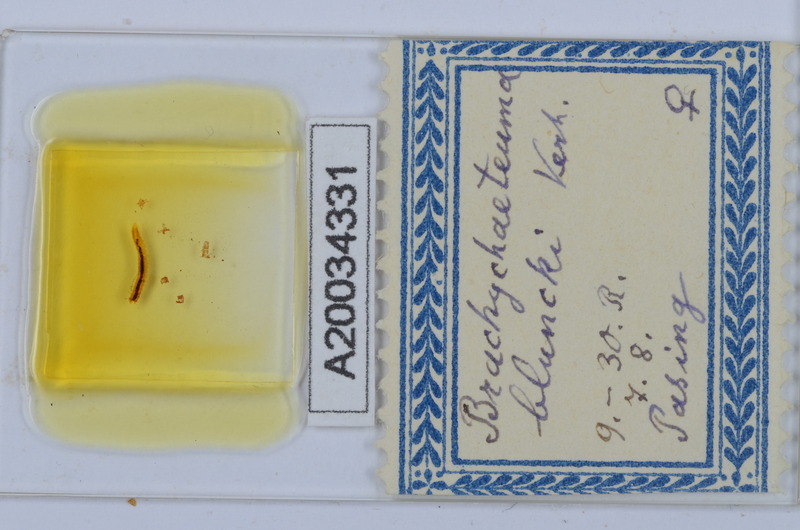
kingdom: Animalia
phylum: Arthropoda
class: Diplopoda
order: Chordeumatida
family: Brachychaeteumatidae
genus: Brachychaeteuma
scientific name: Brachychaeteuma bradeae
